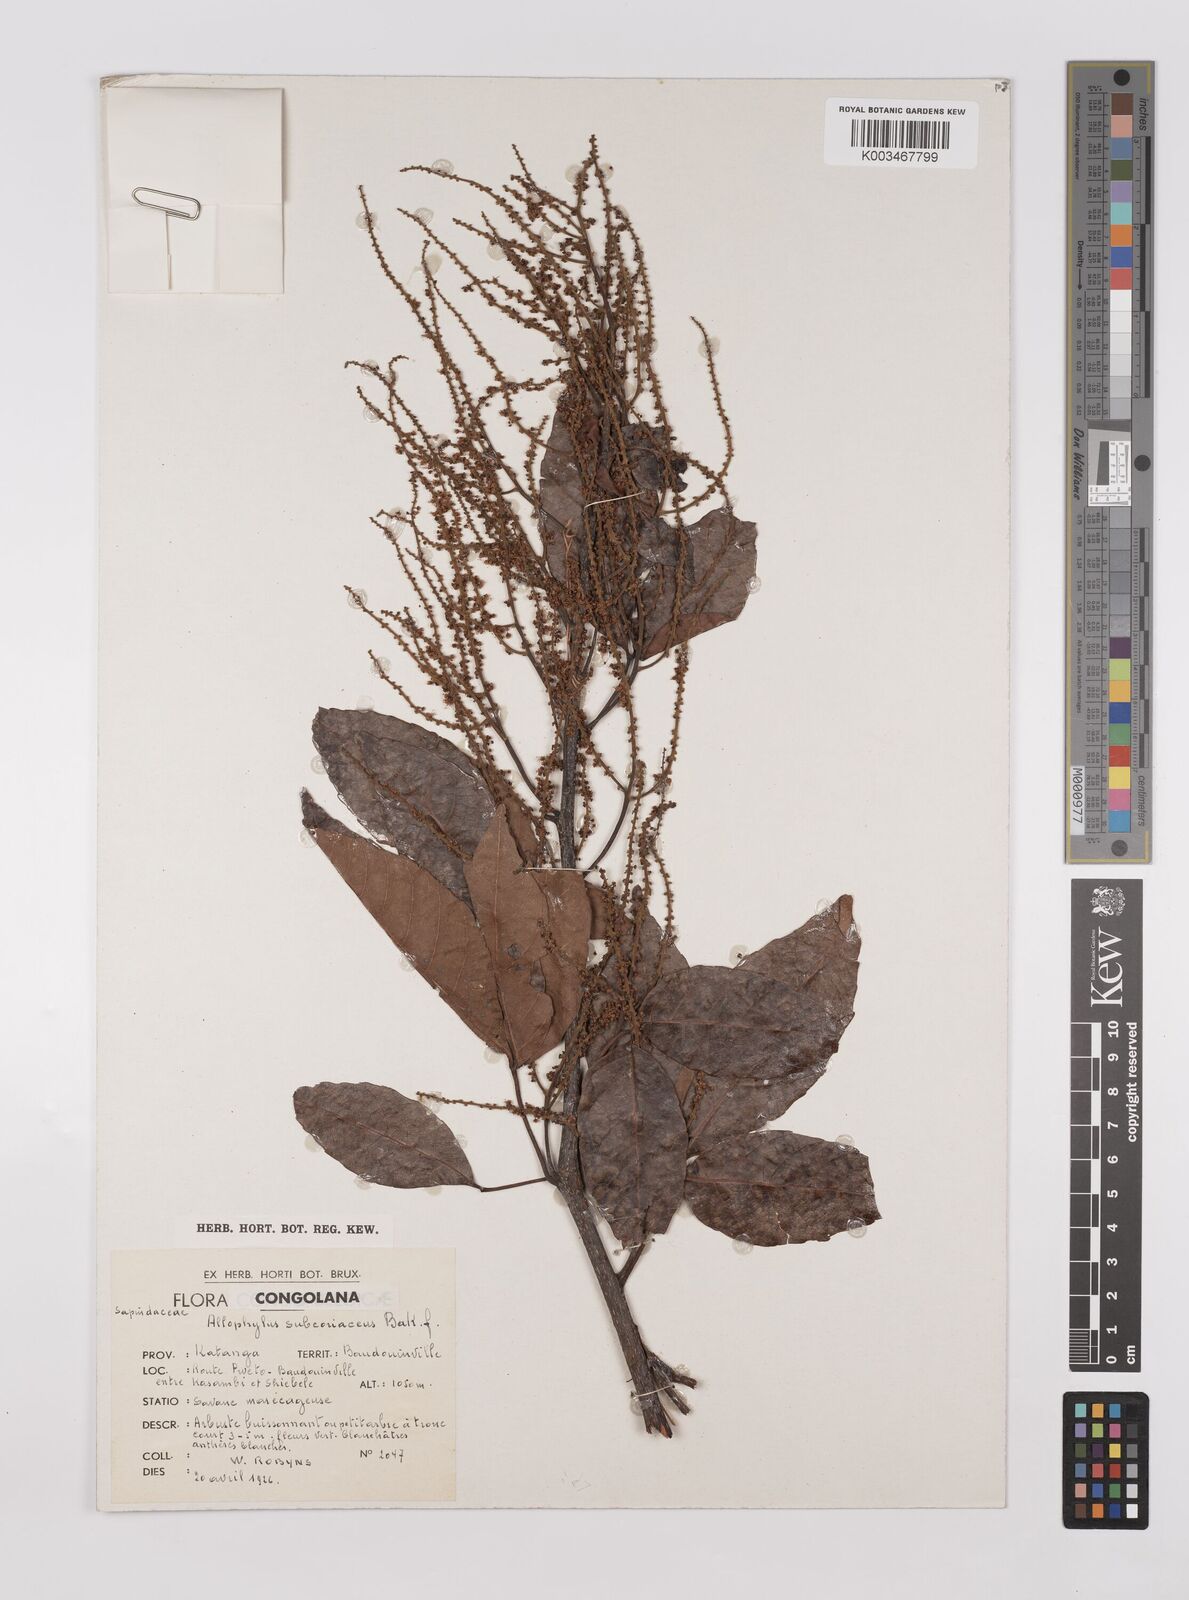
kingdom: Plantae
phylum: Tracheophyta
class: Magnoliopsida
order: Sapindales
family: Sapindaceae
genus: Allophylus
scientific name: Allophylus africanus
